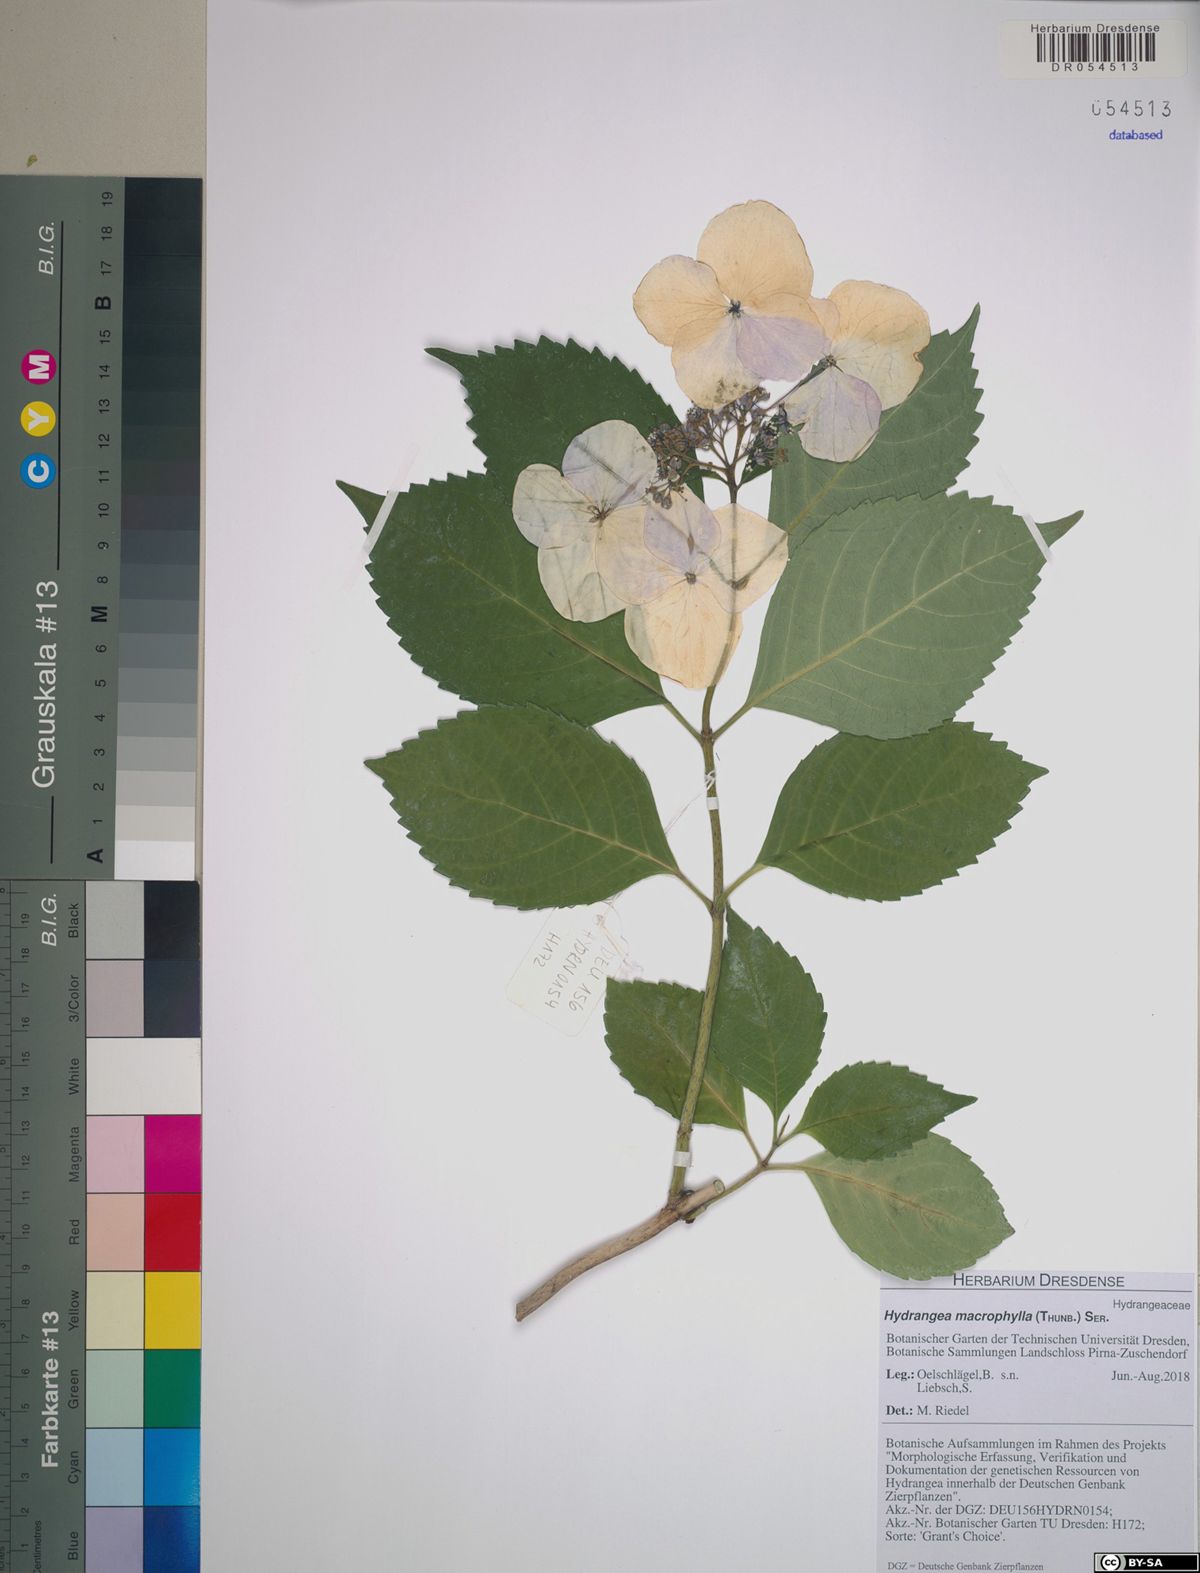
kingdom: Plantae
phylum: Tracheophyta
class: Magnoliopsida
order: Cornales
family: Hydrangeaceae
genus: Hydrangea
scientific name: Hydrangea macrophylla
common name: Hydrangea
